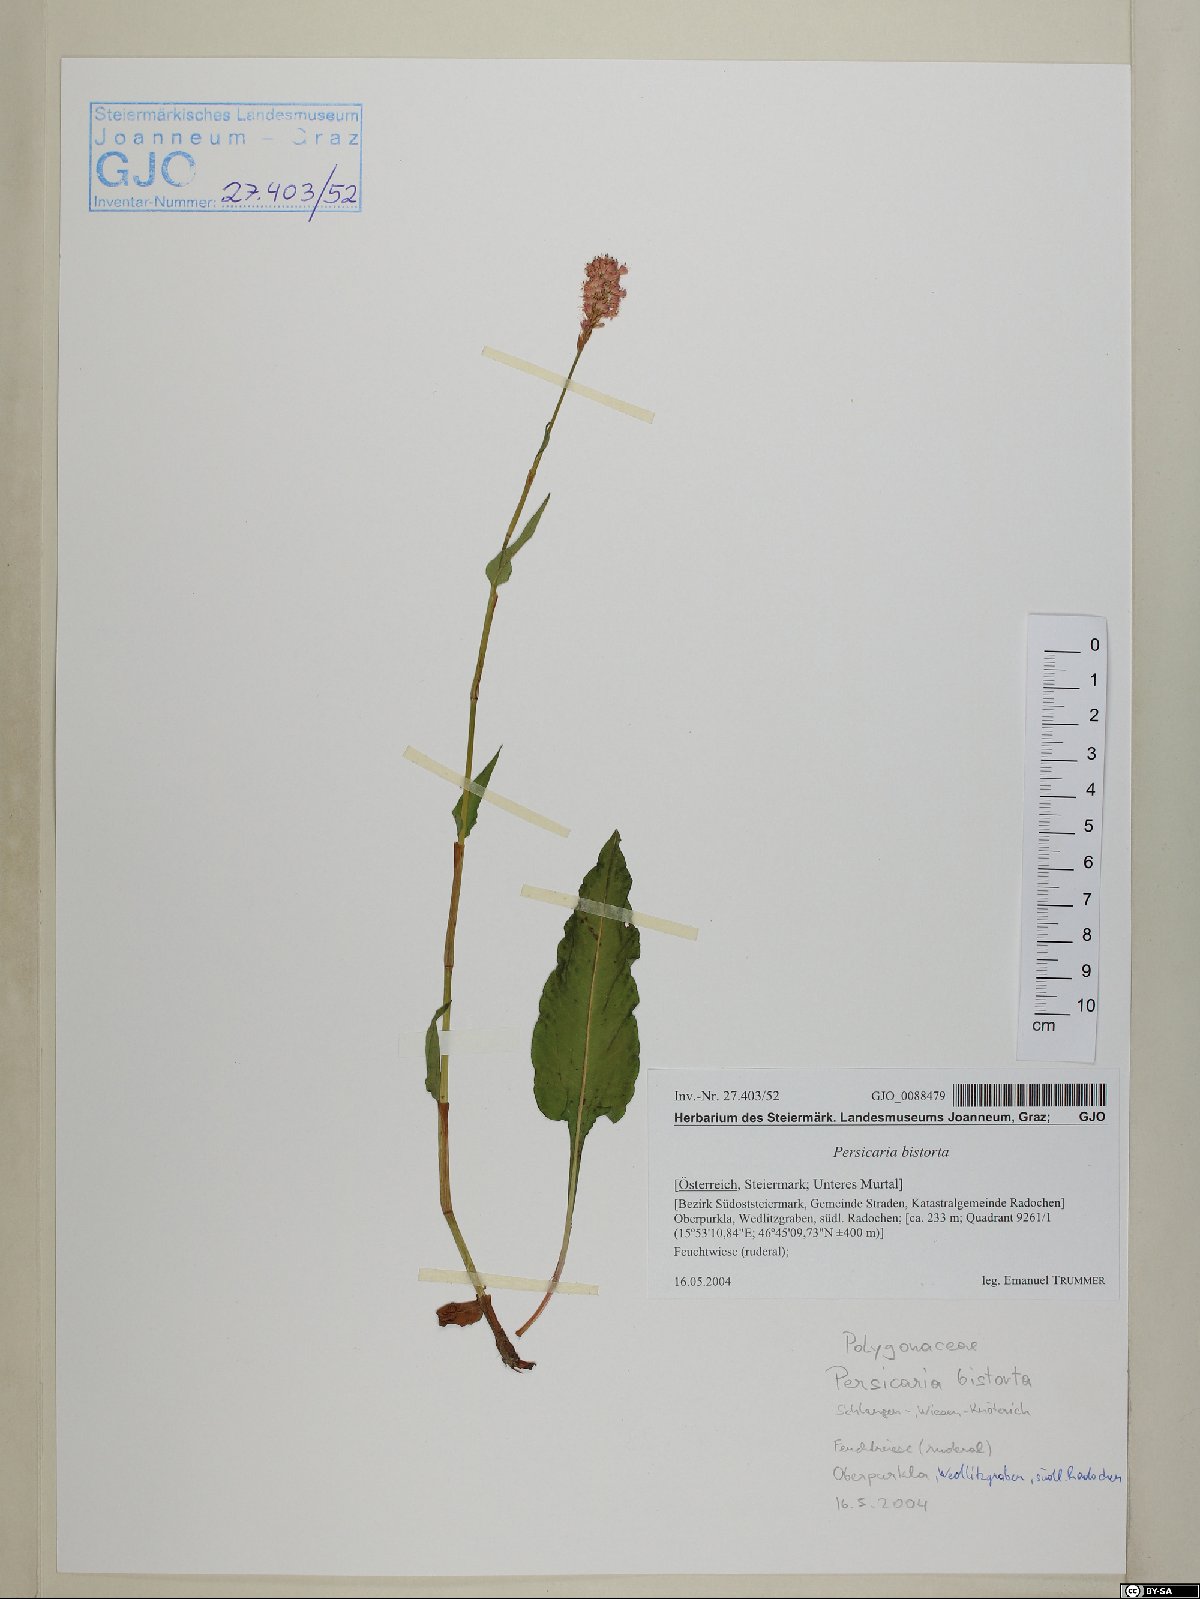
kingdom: Plantae
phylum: Tracheophyta
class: Magnoliopsida
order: Caryophyllales
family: Polygonaceae
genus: Bistorta
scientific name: Bistorta officinalis
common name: Common bistort
